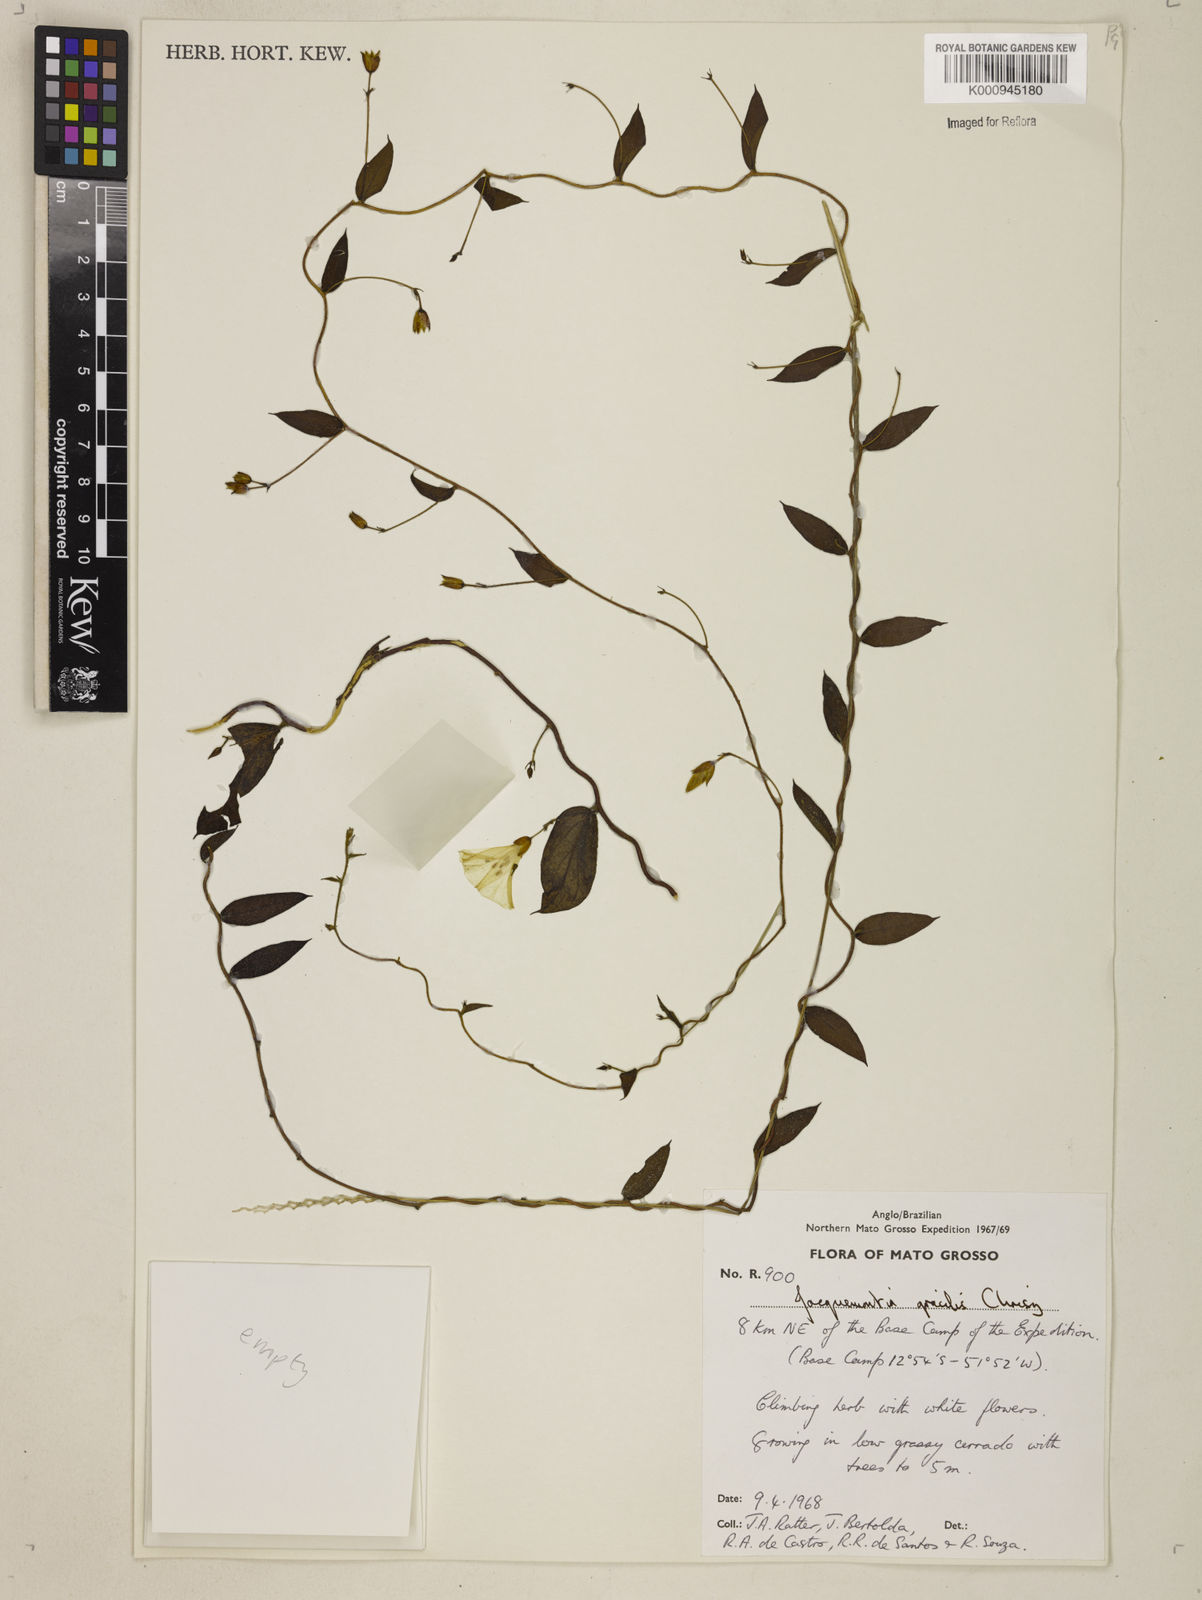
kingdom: Plantae
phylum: Tracheophyta
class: Magnoliopsida
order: Solanales
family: Convolvulaceae
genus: Jacquemontia
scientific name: Jacquemontia gracilis
